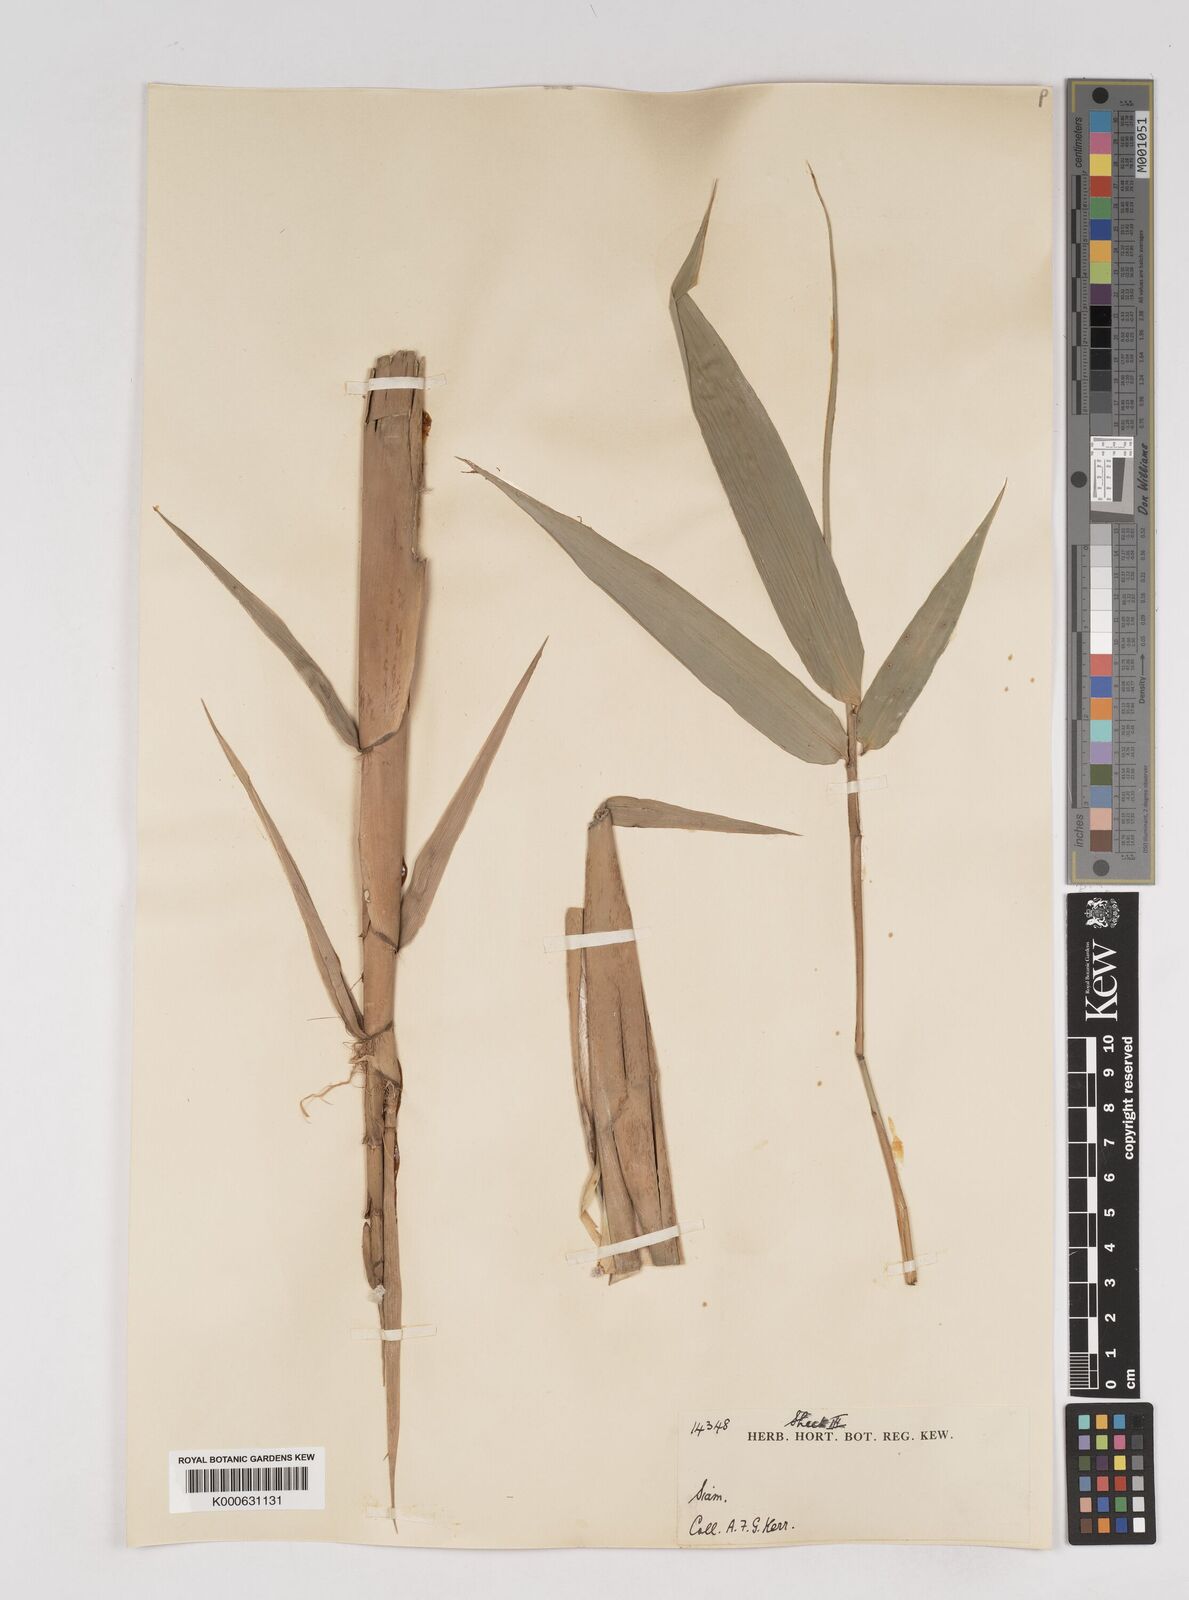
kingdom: Plantae
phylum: Tracheophyta
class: Liliopsida
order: Poales
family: Poaceae
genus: Gigantochloa
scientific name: Gigantochloa
